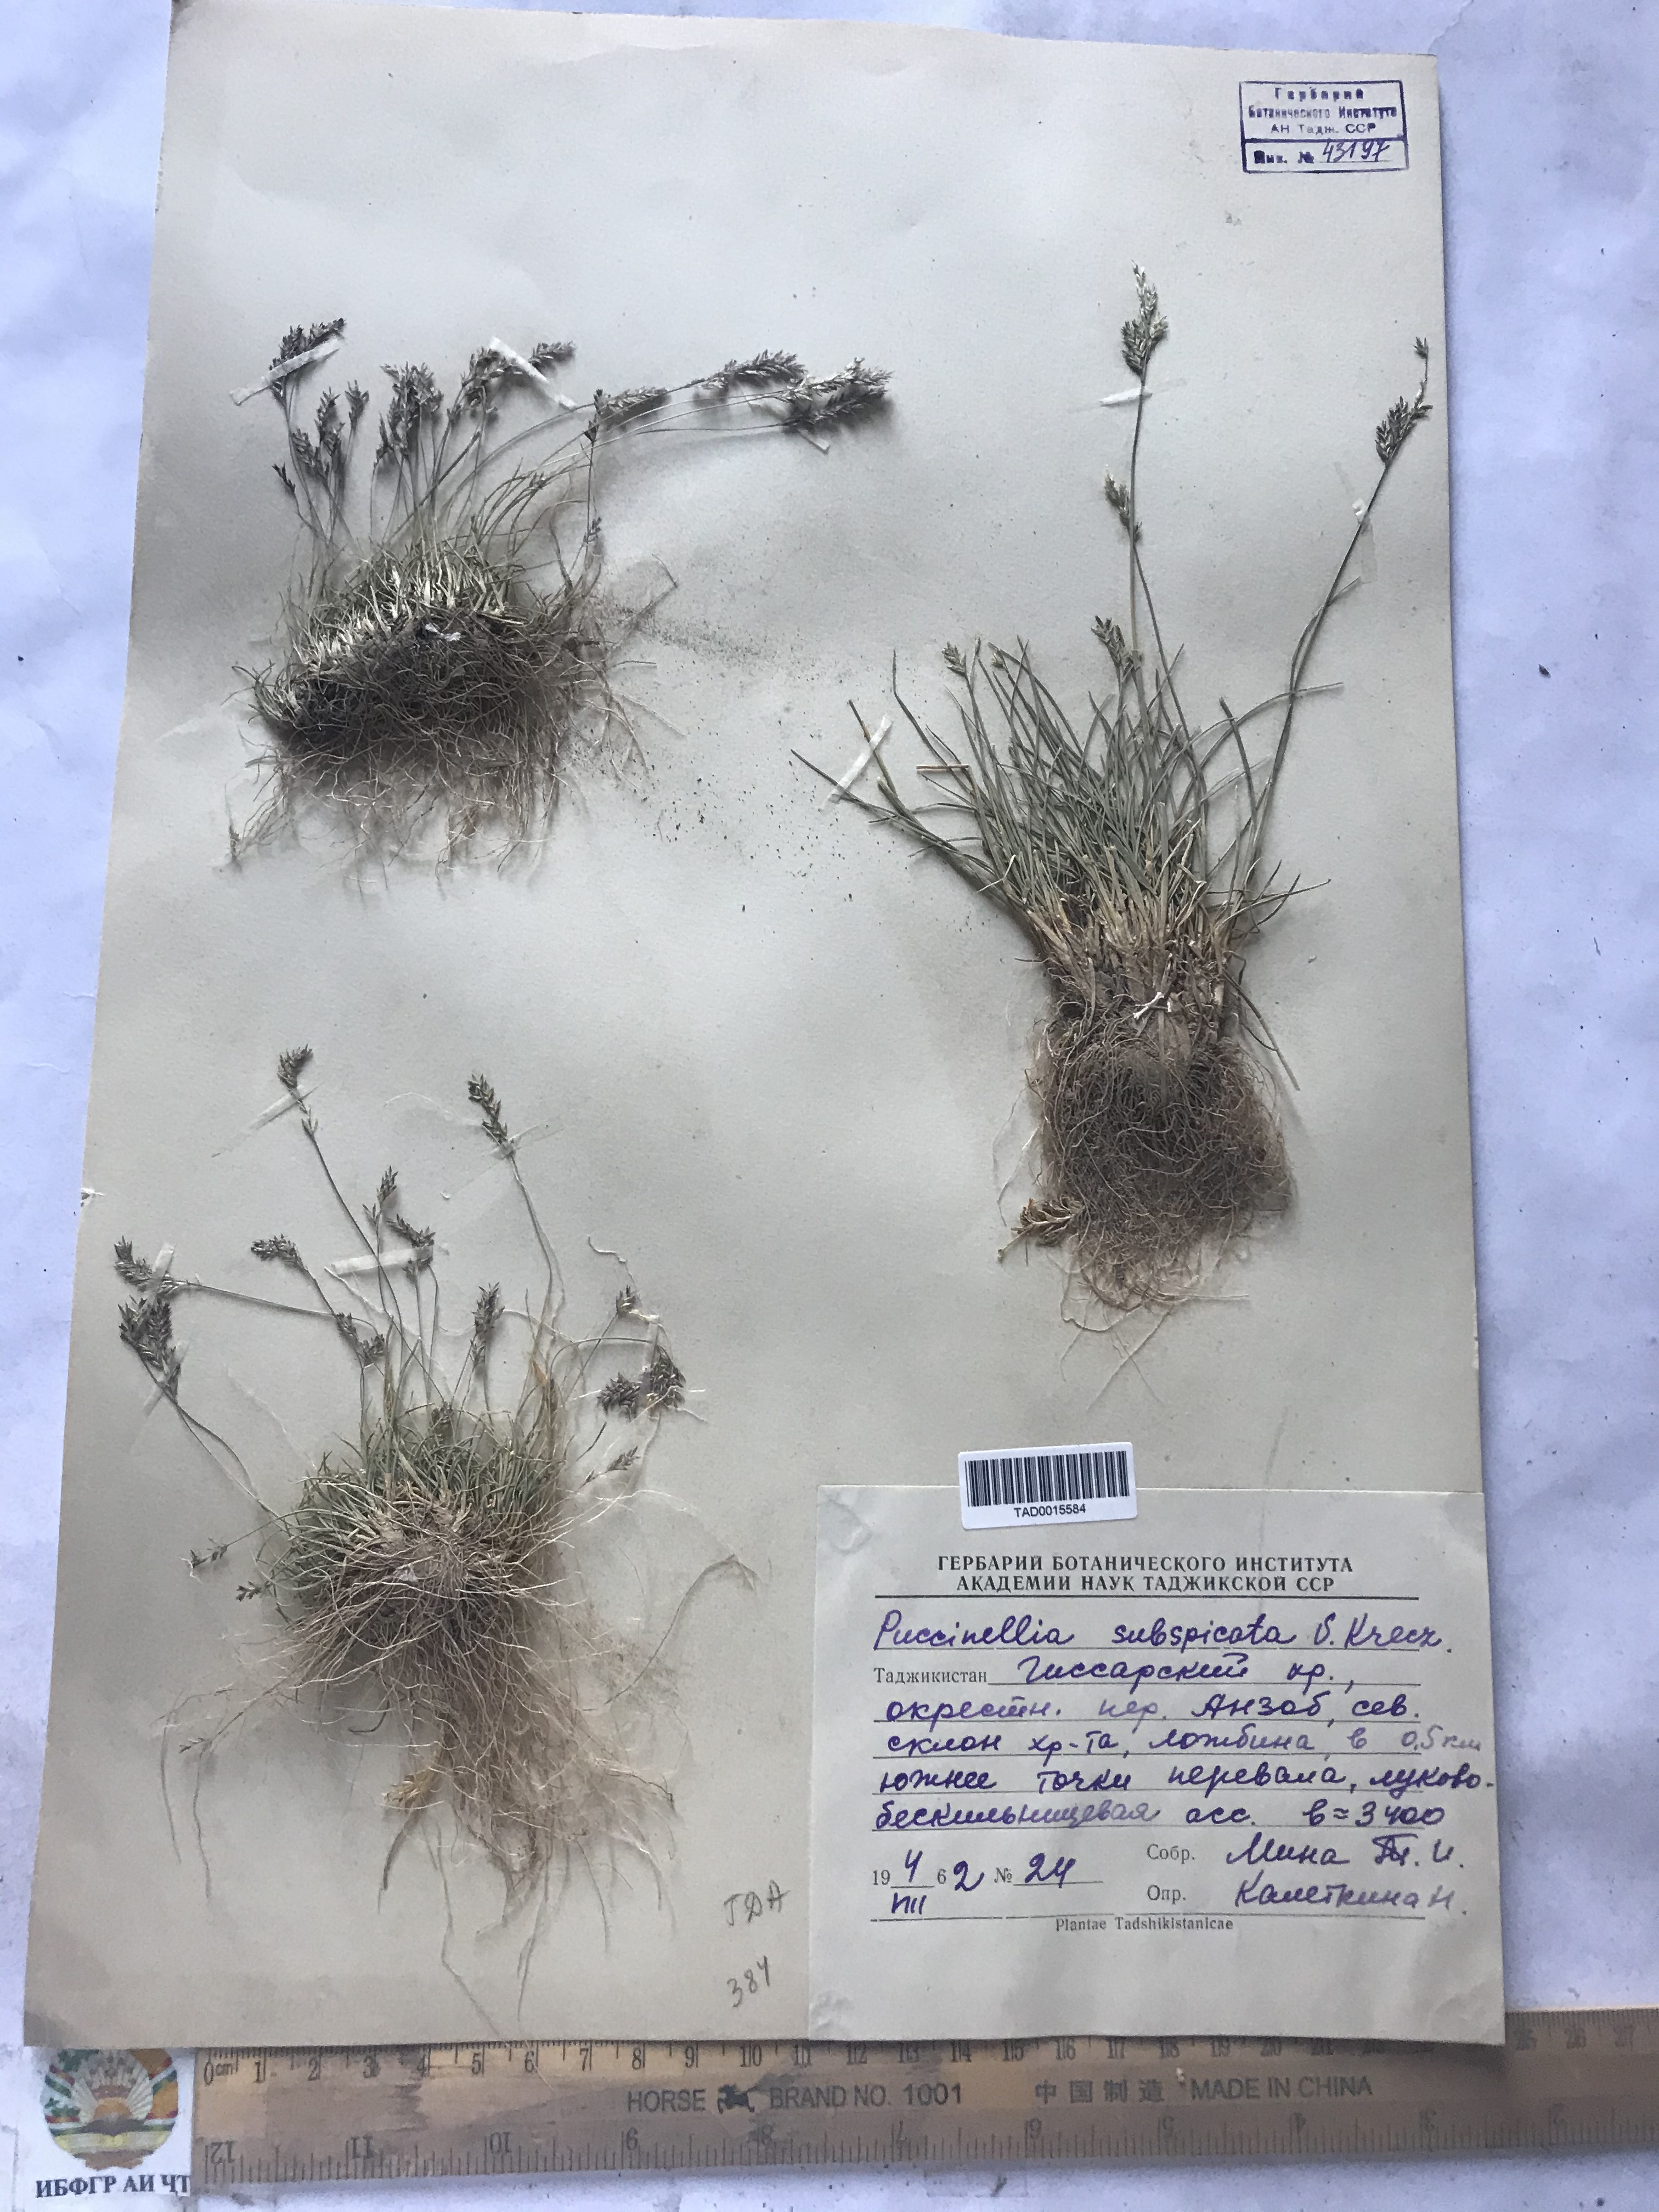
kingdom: Plantae
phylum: Tracheophyta
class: Liliopsida
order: Poales
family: Poaceae
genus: Puccinellia
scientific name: Puccinellia subspicata
